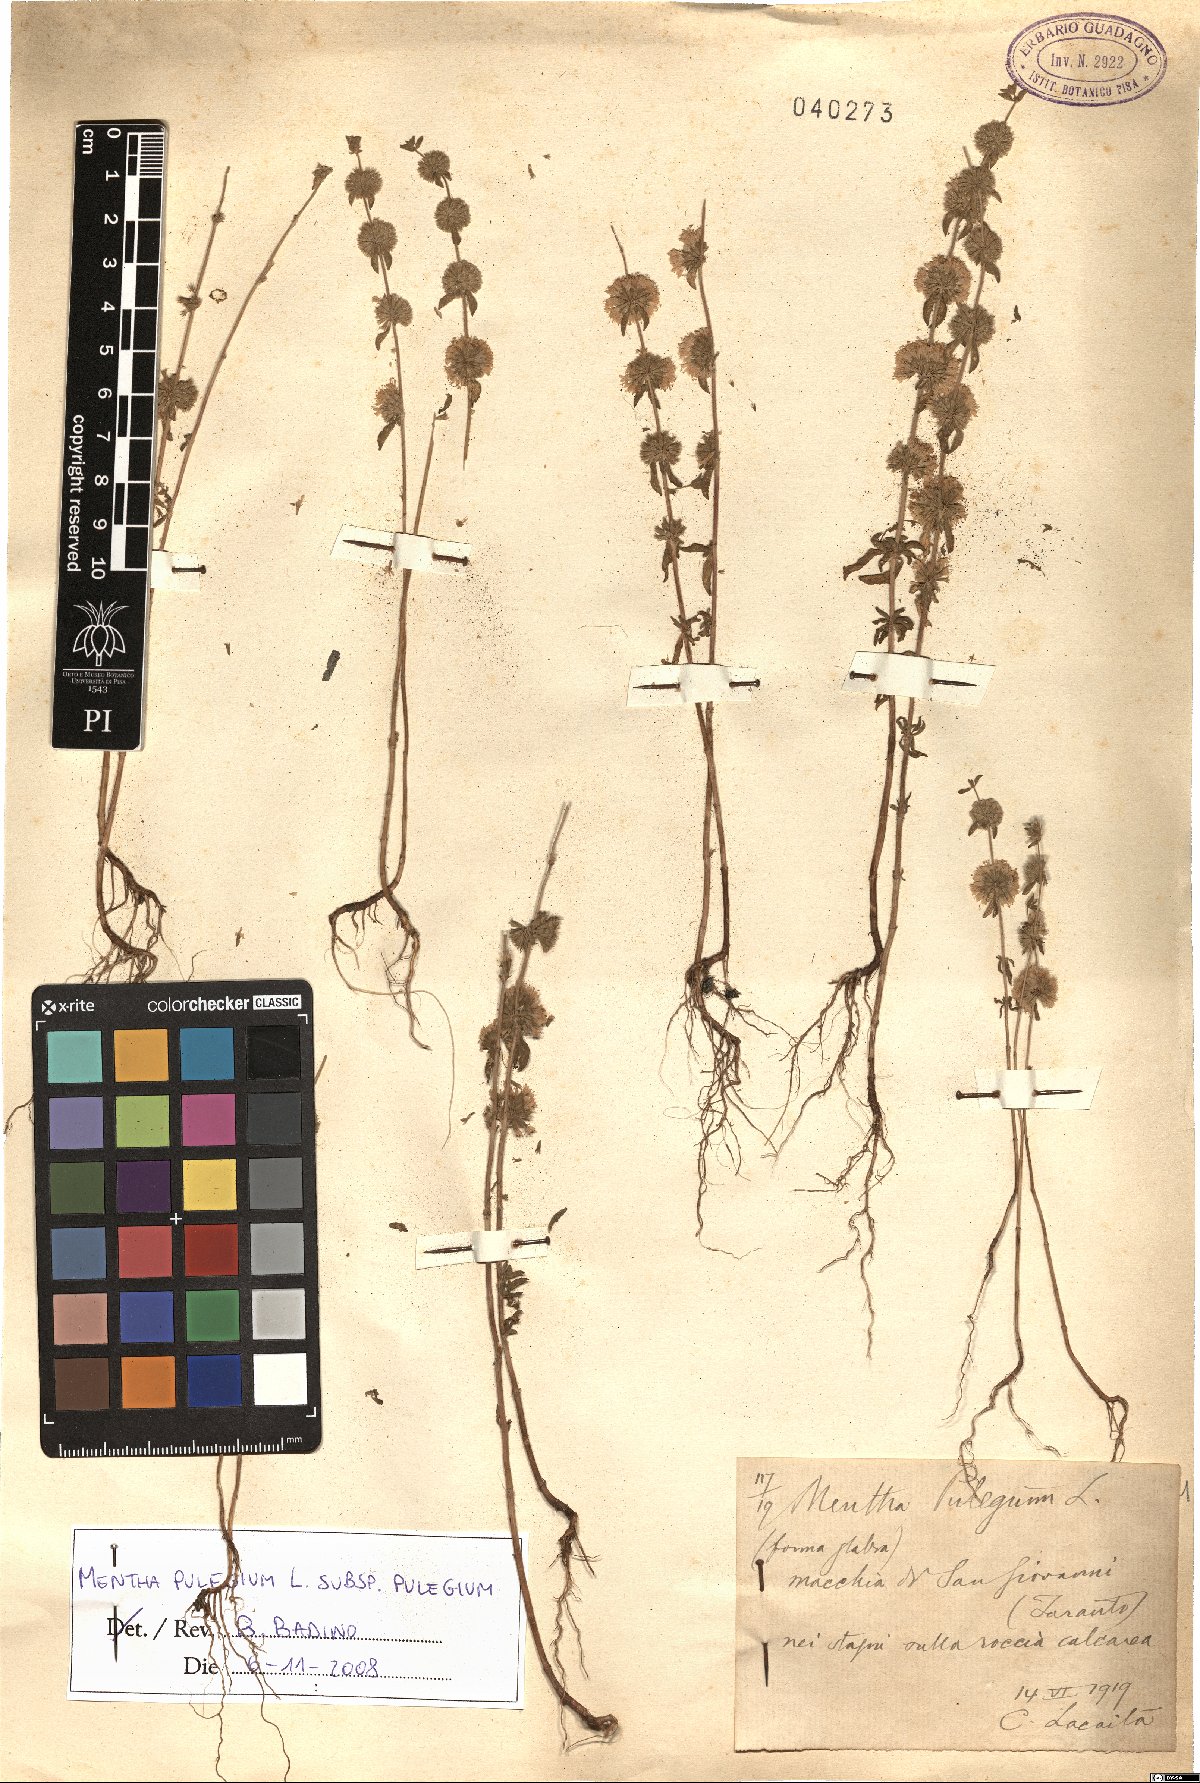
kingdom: Plantae
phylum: Tracheophyta
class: Magnoliopsida
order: Lamiales
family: Lamiaceae
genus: Mentha
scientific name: Mentha pulegium
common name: Pennyroyal
